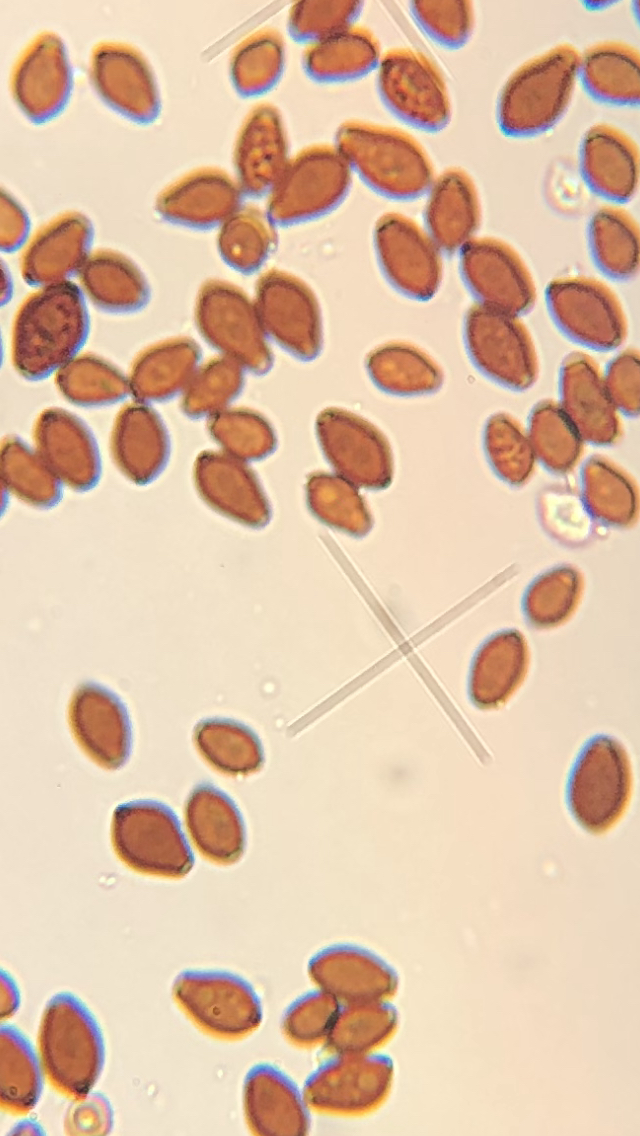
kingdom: Fungi
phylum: Basidiomycota
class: Agaricomycetes
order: Agaricales
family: Psathyrellaceae
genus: Coprinellus
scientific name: Coprinellus micaceus
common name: glimmer-blækhat
